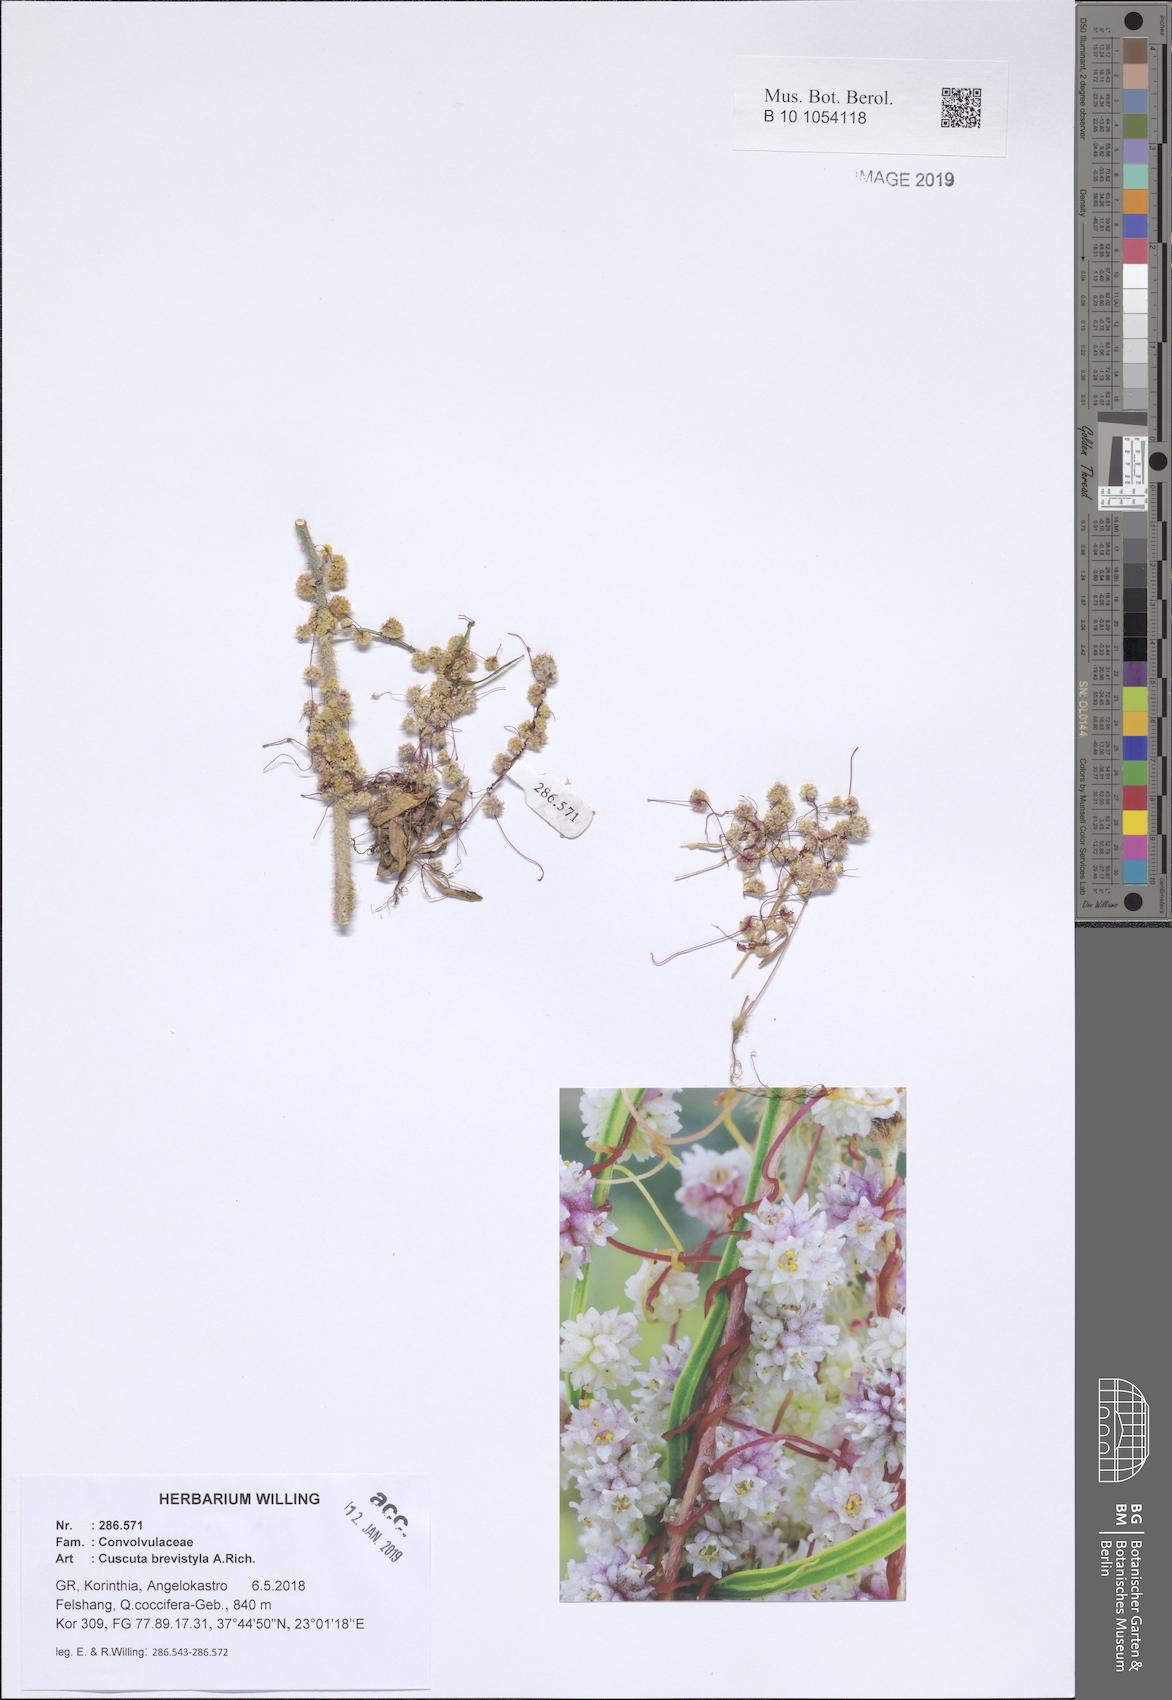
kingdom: Plantae
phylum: Tracheophyta
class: Magnoliopsida
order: Solanales
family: Convolvulaceae
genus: Cuscuta
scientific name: Cuscuta brevistyla
